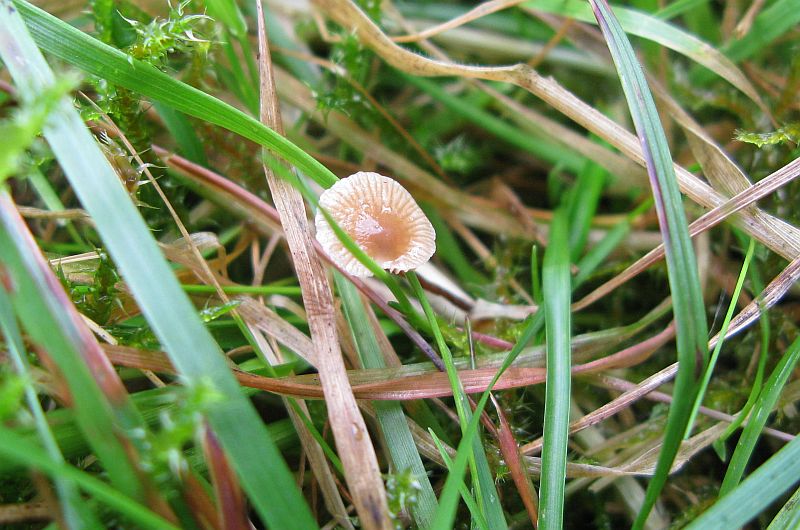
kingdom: Fungi
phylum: Basidiomycota
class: Agaricomycetes
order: Agaricales
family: Strophariaceae
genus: Deconica
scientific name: Deconica inquilina
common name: græs-stråhat
